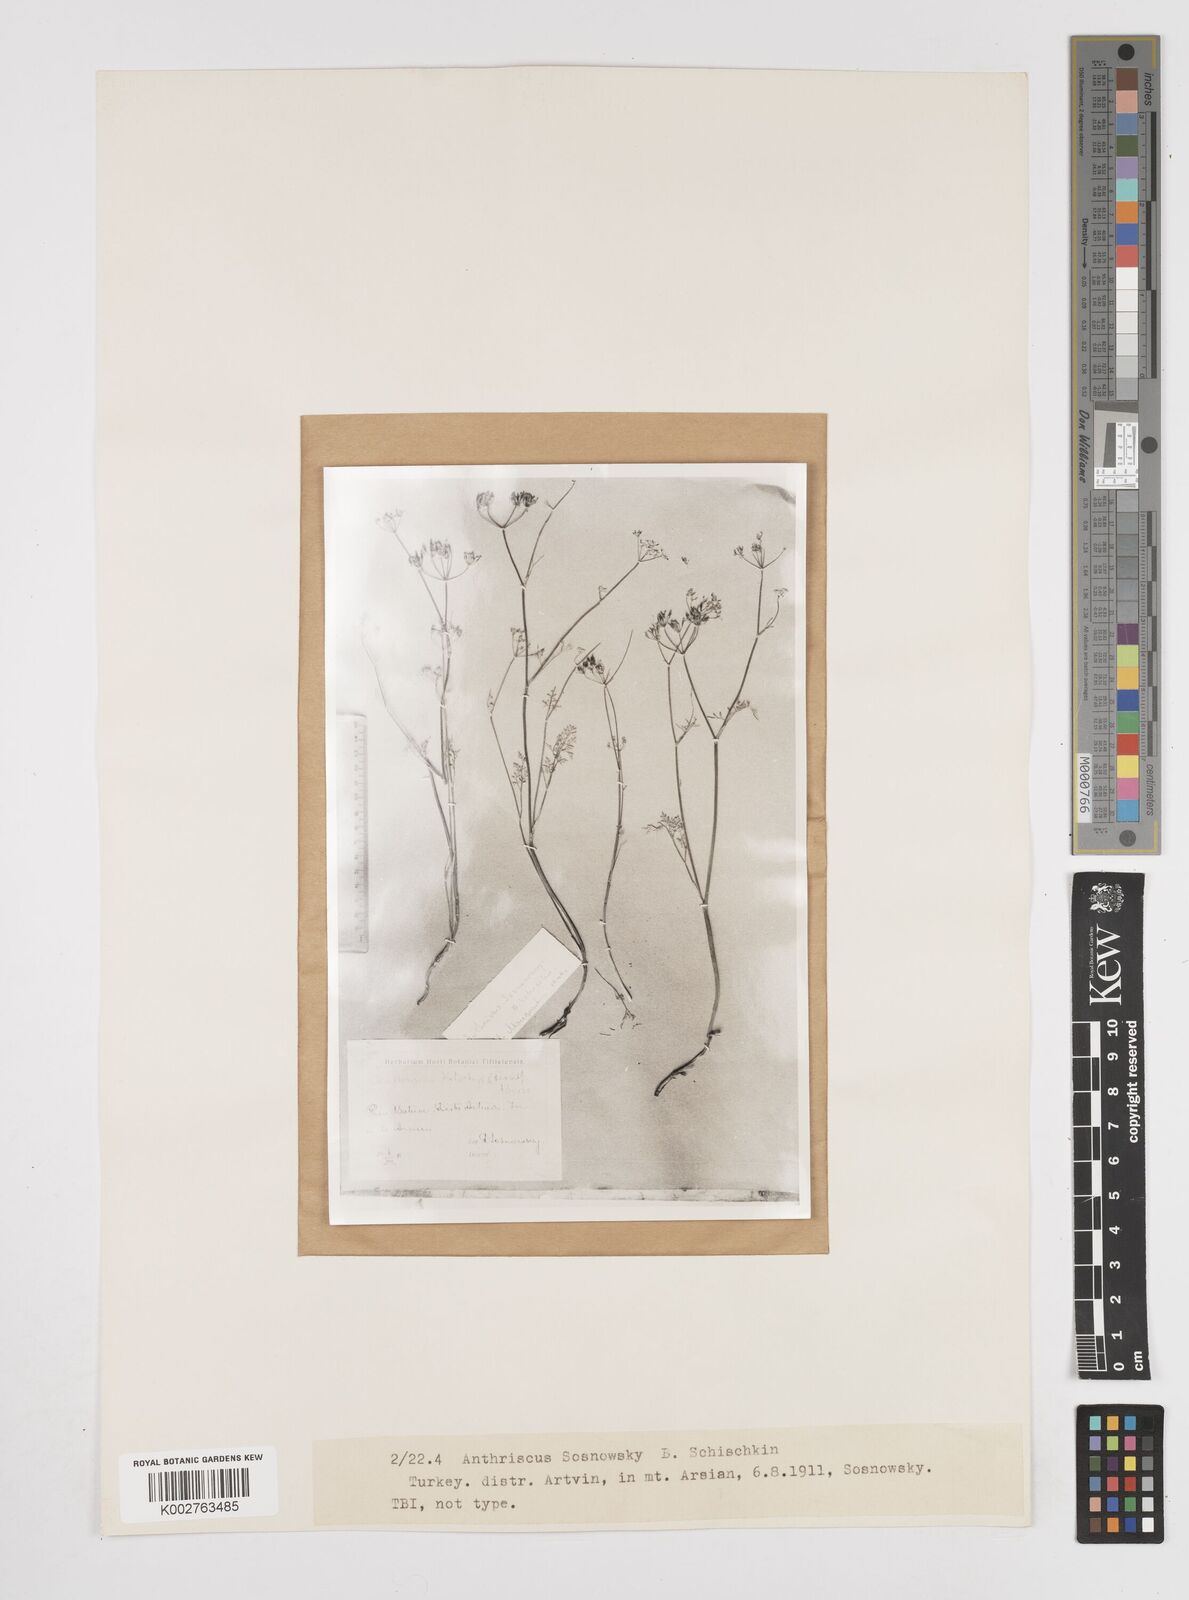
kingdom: Plantae
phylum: Tracheophyta
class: Magnoliopsida
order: Apiales
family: Apiaceae
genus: Anthriscus
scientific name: Anthriscus kotschyi
